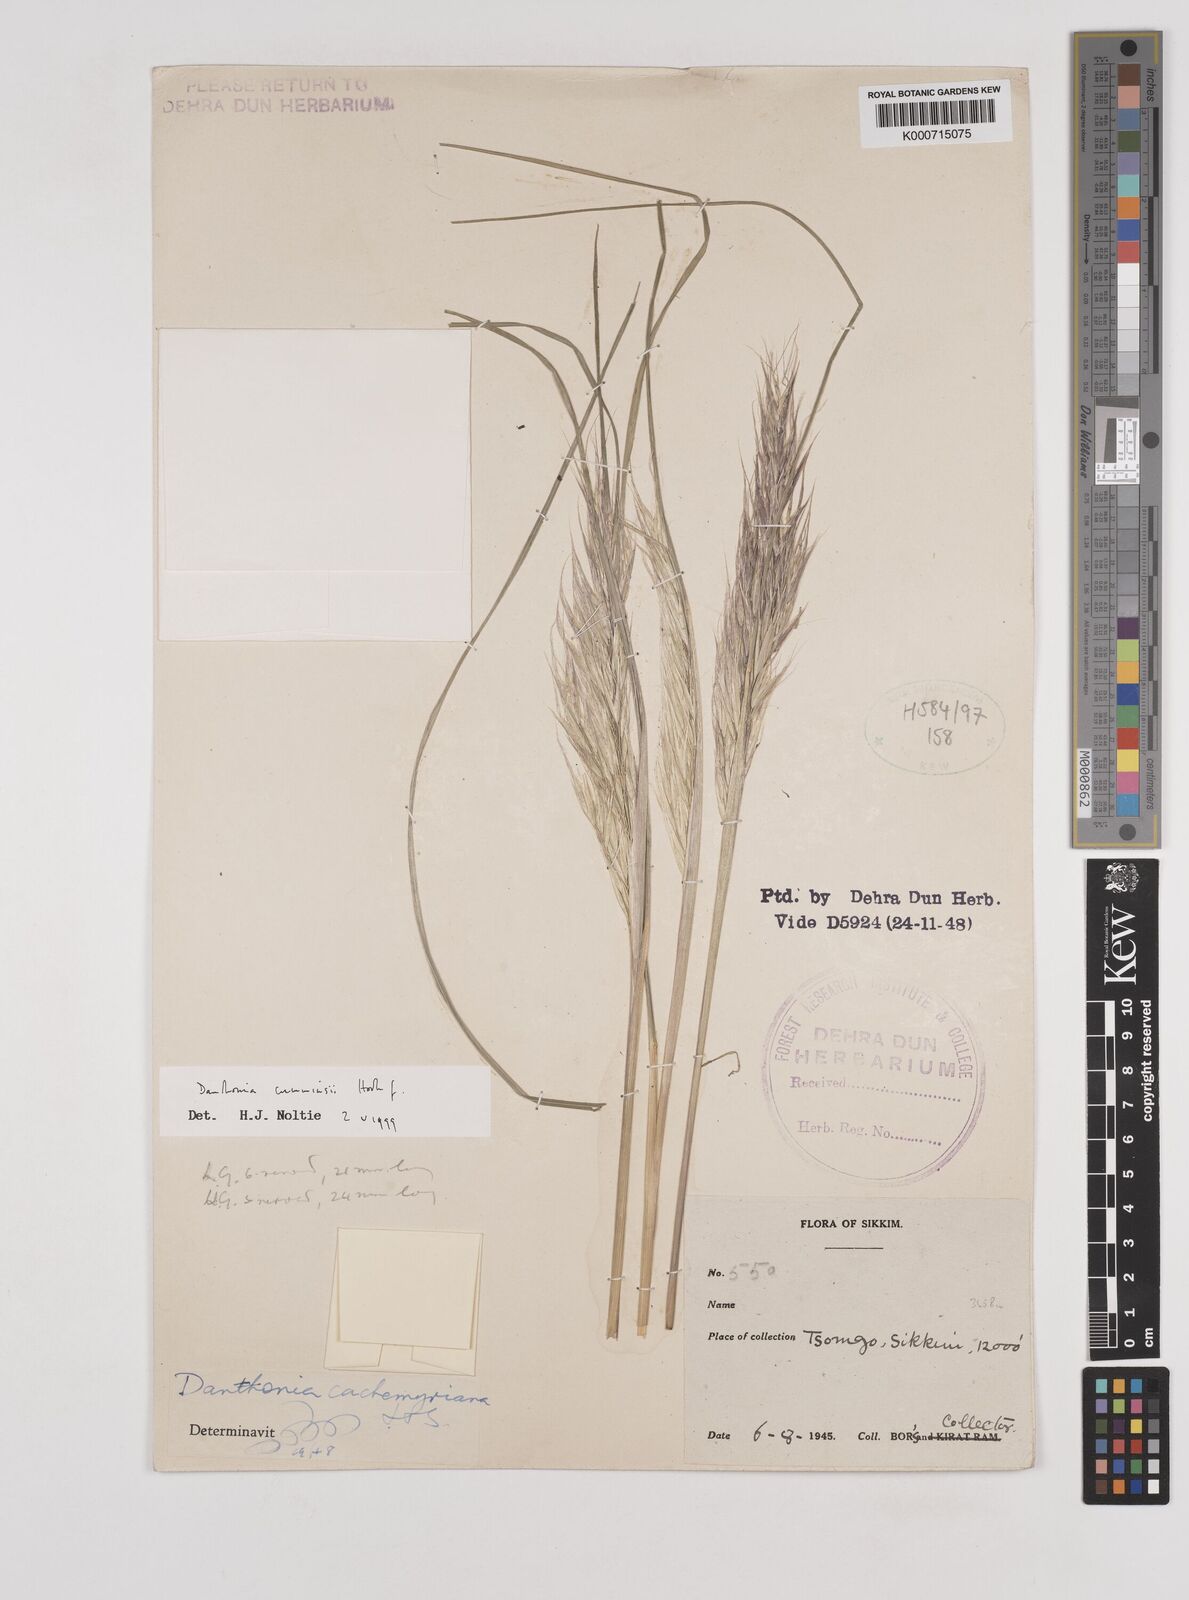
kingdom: Plantae
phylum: Tracheophyta
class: Liliopsida
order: Poales
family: Poaceae
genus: Rytidosperma
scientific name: Rytidosperma
